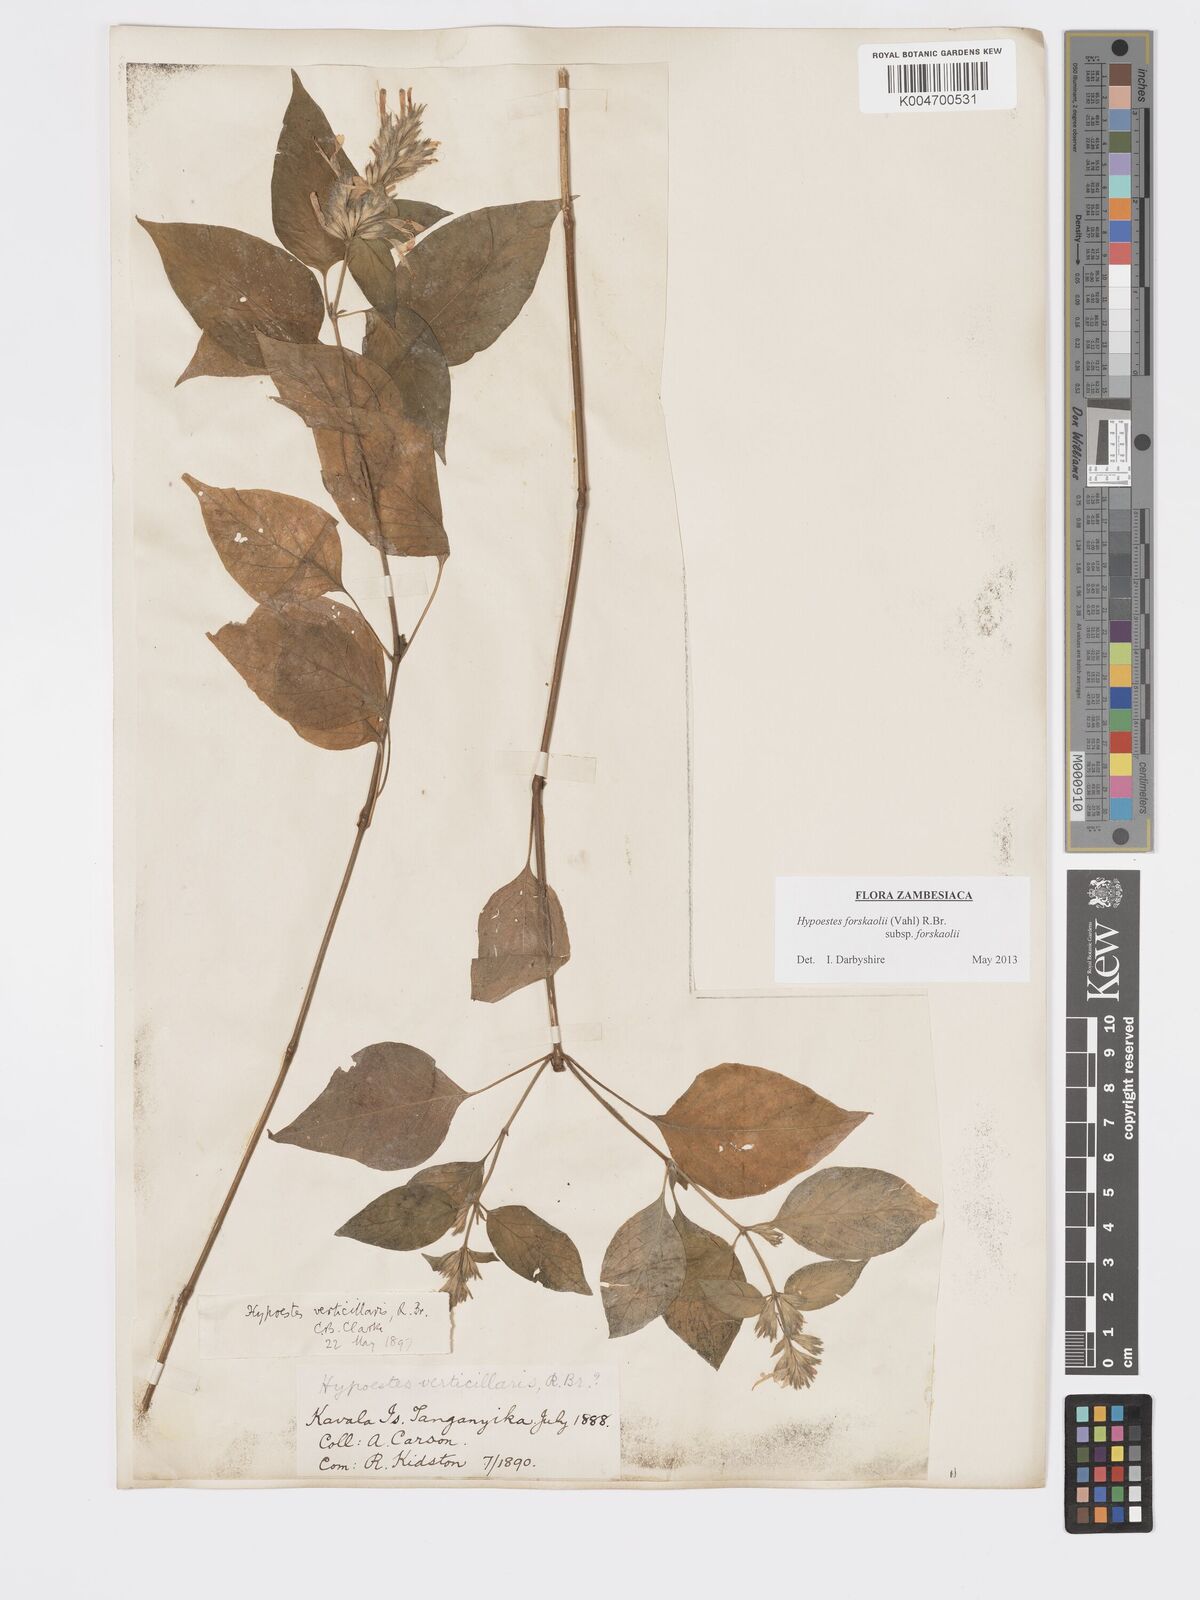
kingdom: Plantae
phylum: Tracheophyta
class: Magnoliopsida
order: Lamiales
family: Acanthaceae
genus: Hypoestes
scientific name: Hypoestes forskaolii
